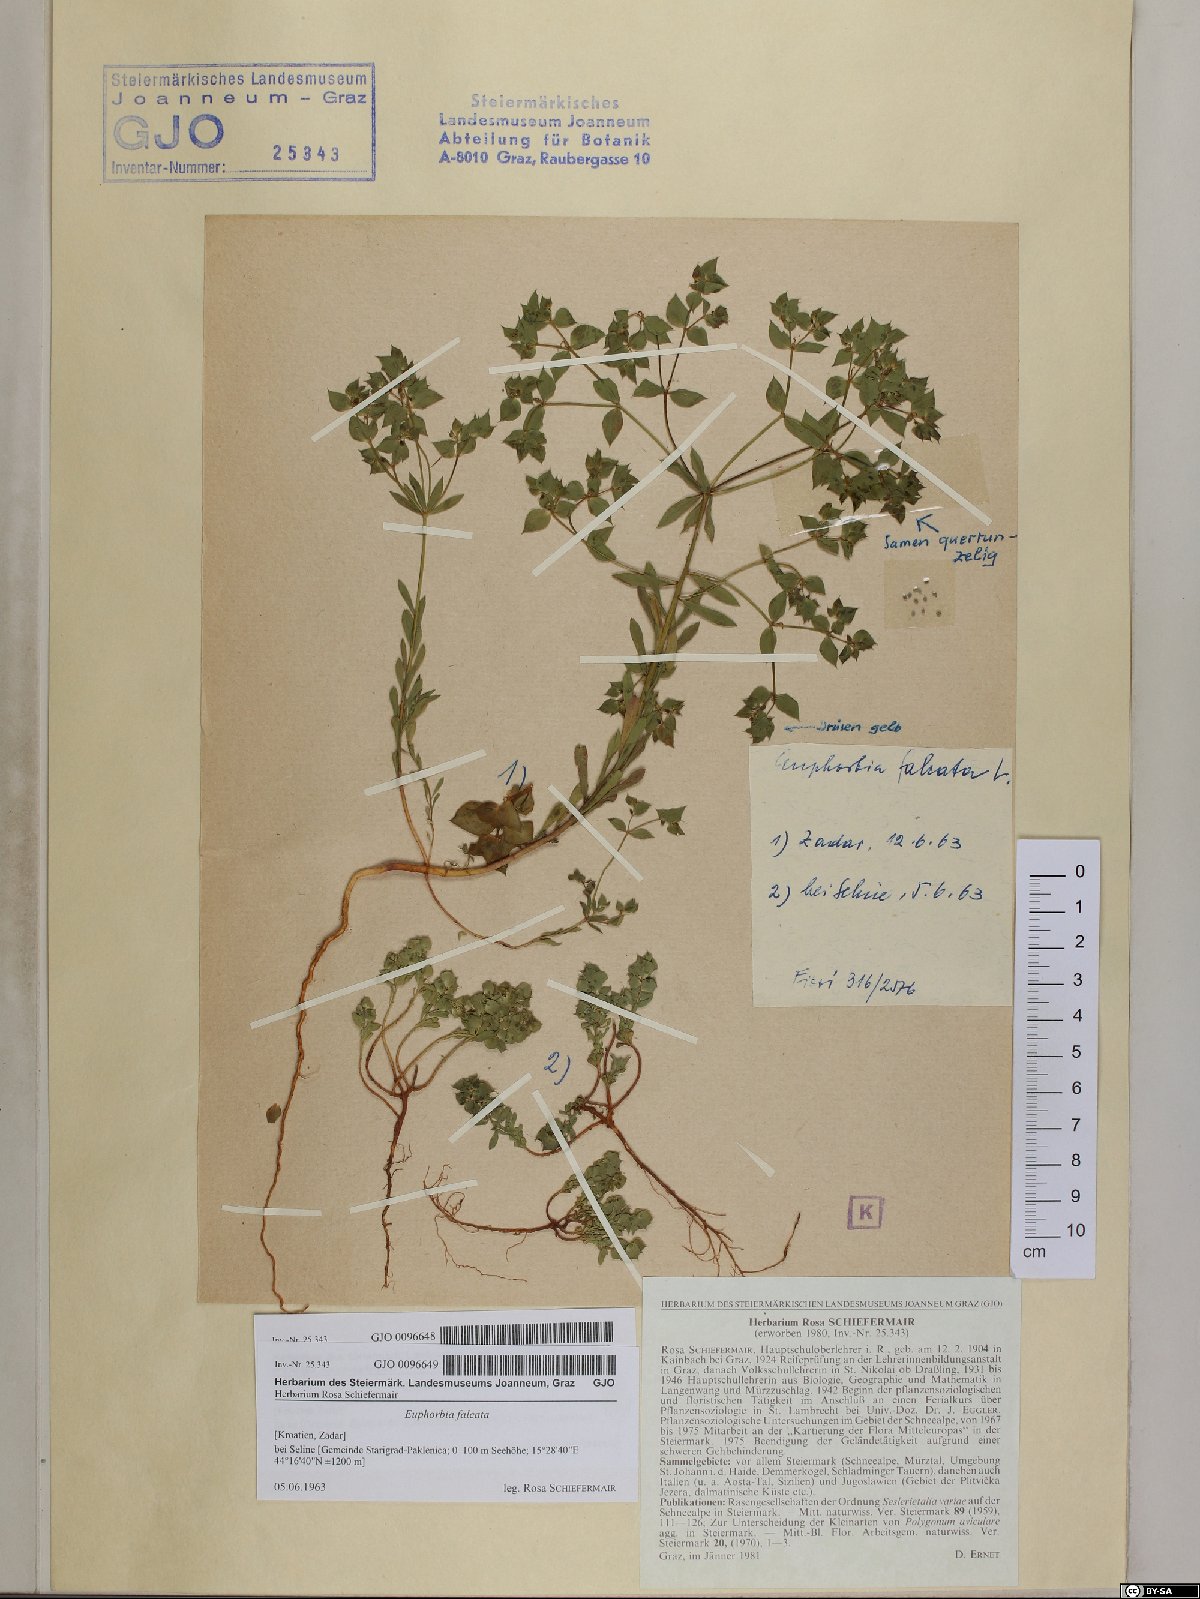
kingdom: Plantae
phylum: Tracheophyta
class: Magnoliopsida
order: Malpighiales
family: Euphorbiaceae
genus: Euphorbia
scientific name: Euphorbia falcata
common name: Sickle spurge
